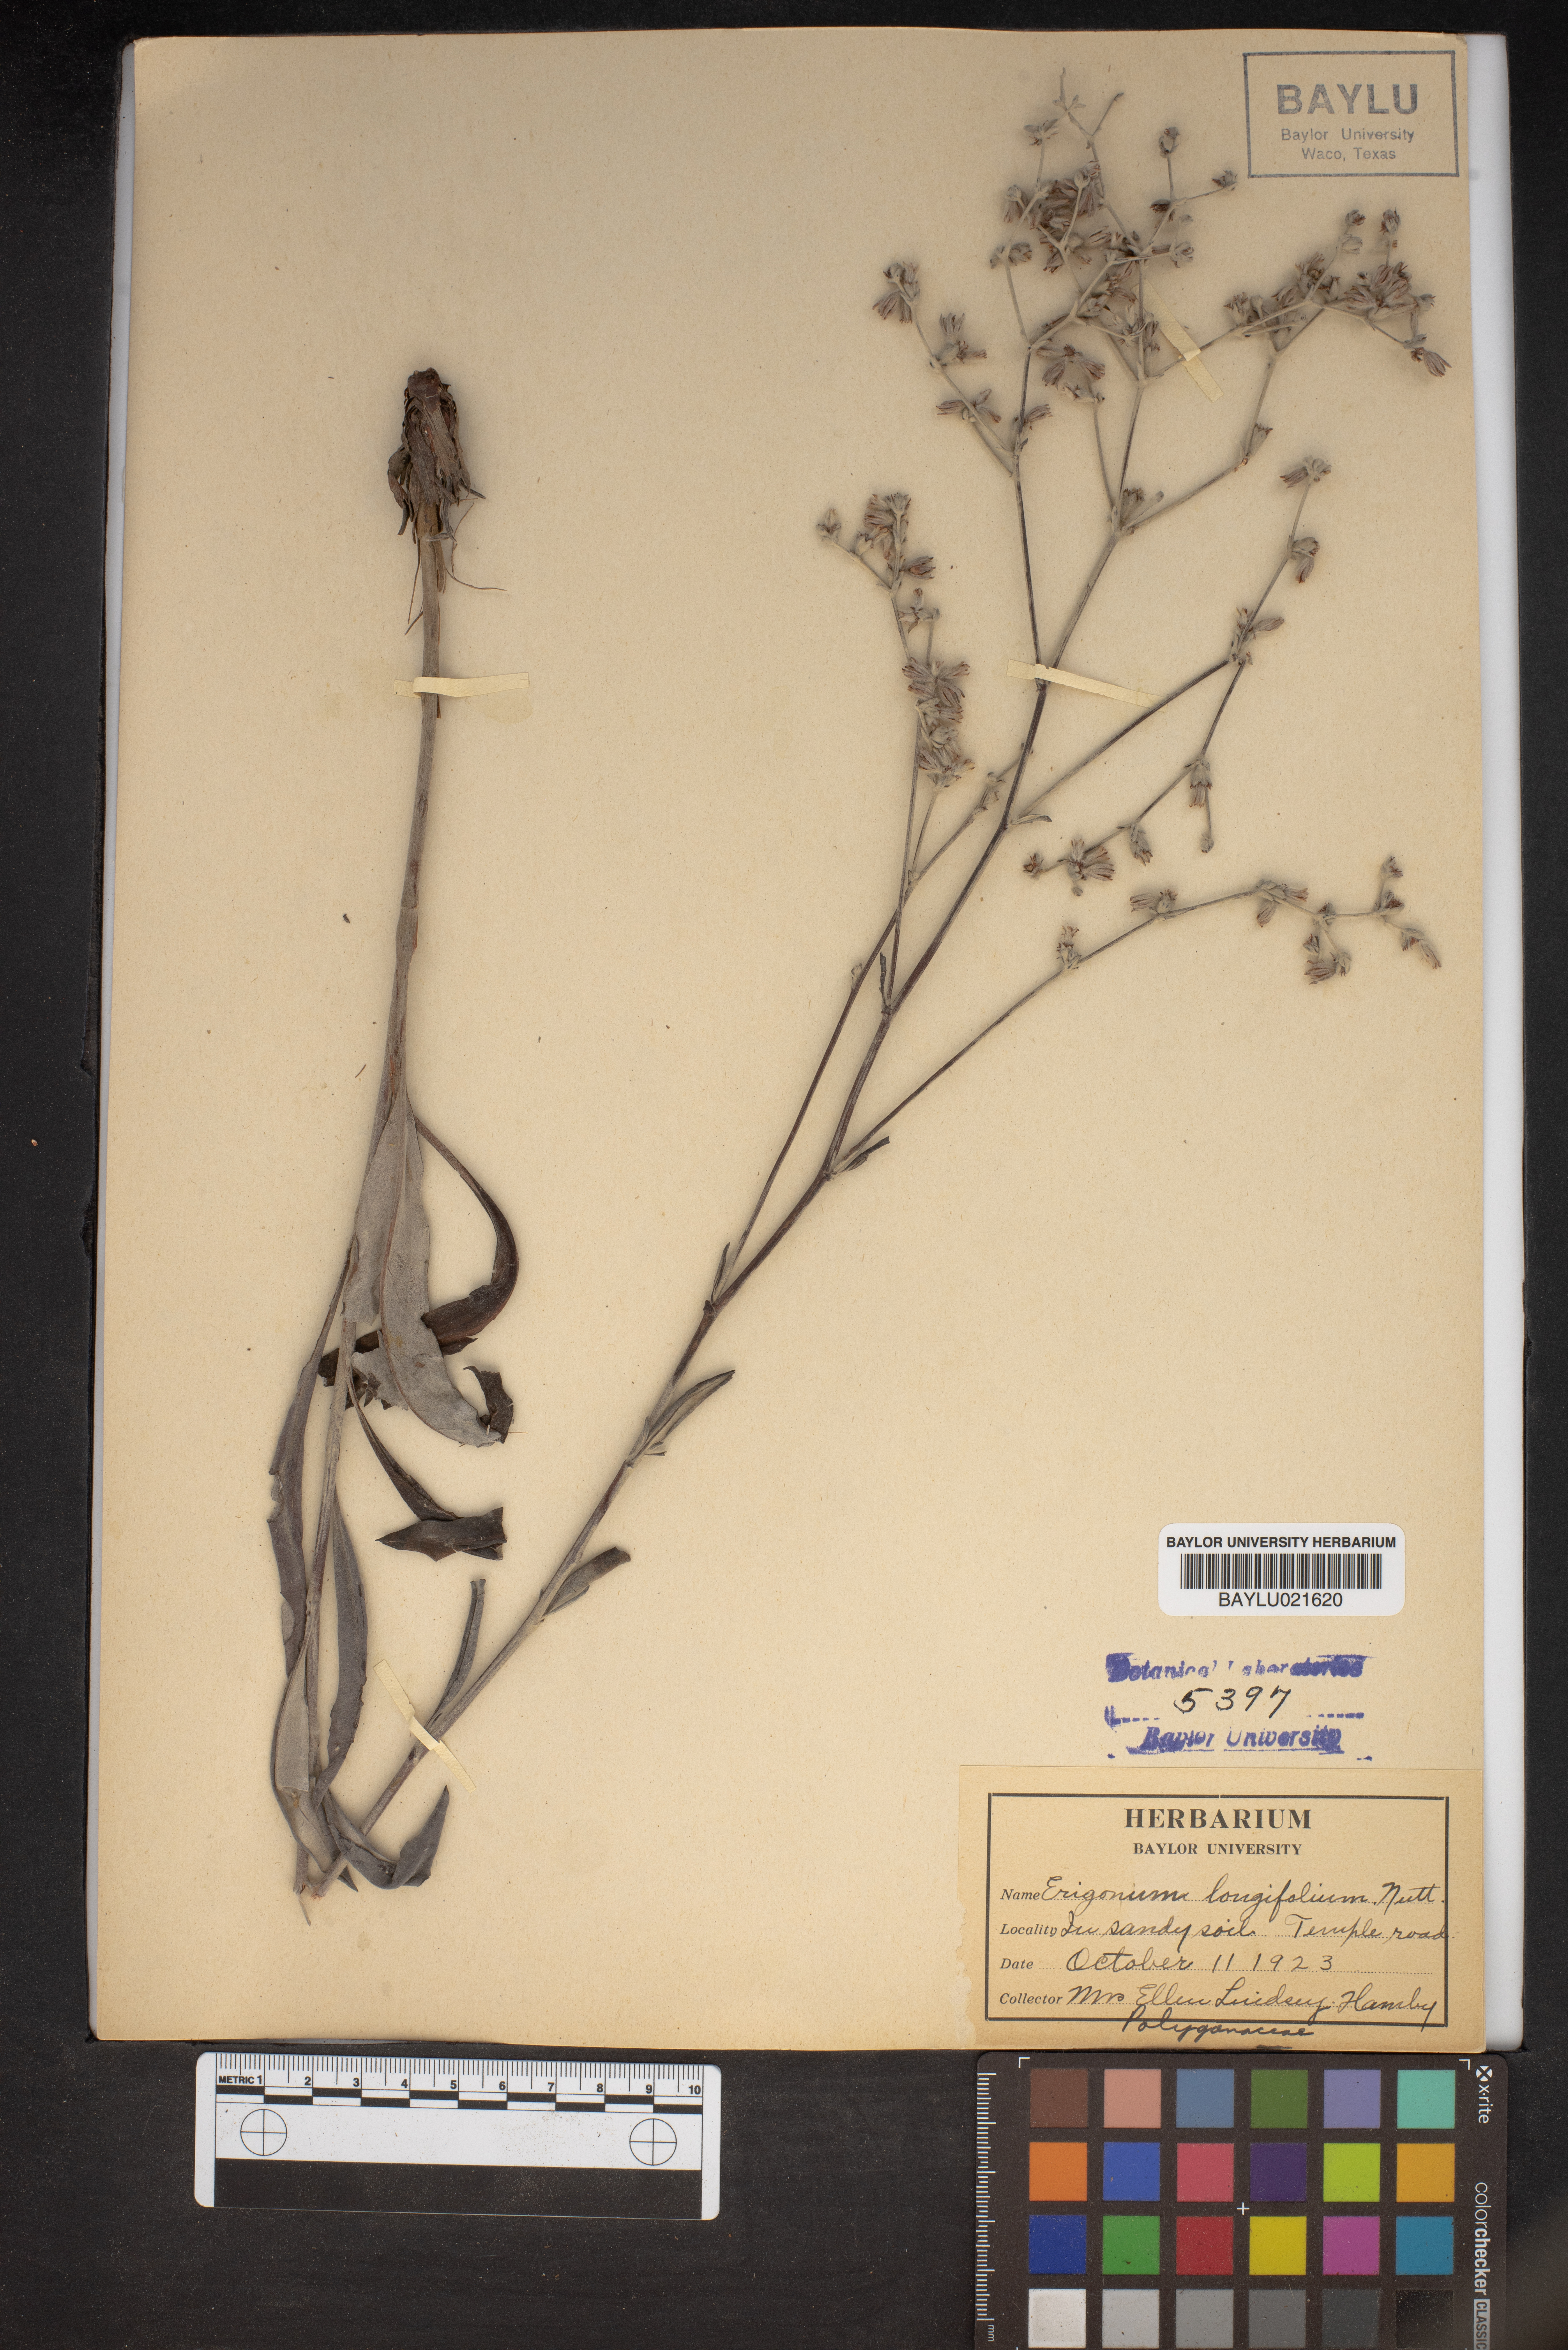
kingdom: Plantae
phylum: Tracheophyta
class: Magnoliopsida
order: Caryophyllales
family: Polygonaceae
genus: Eriogonum
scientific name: Eriogonum longifolium
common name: Longleaf wild buckwheat
